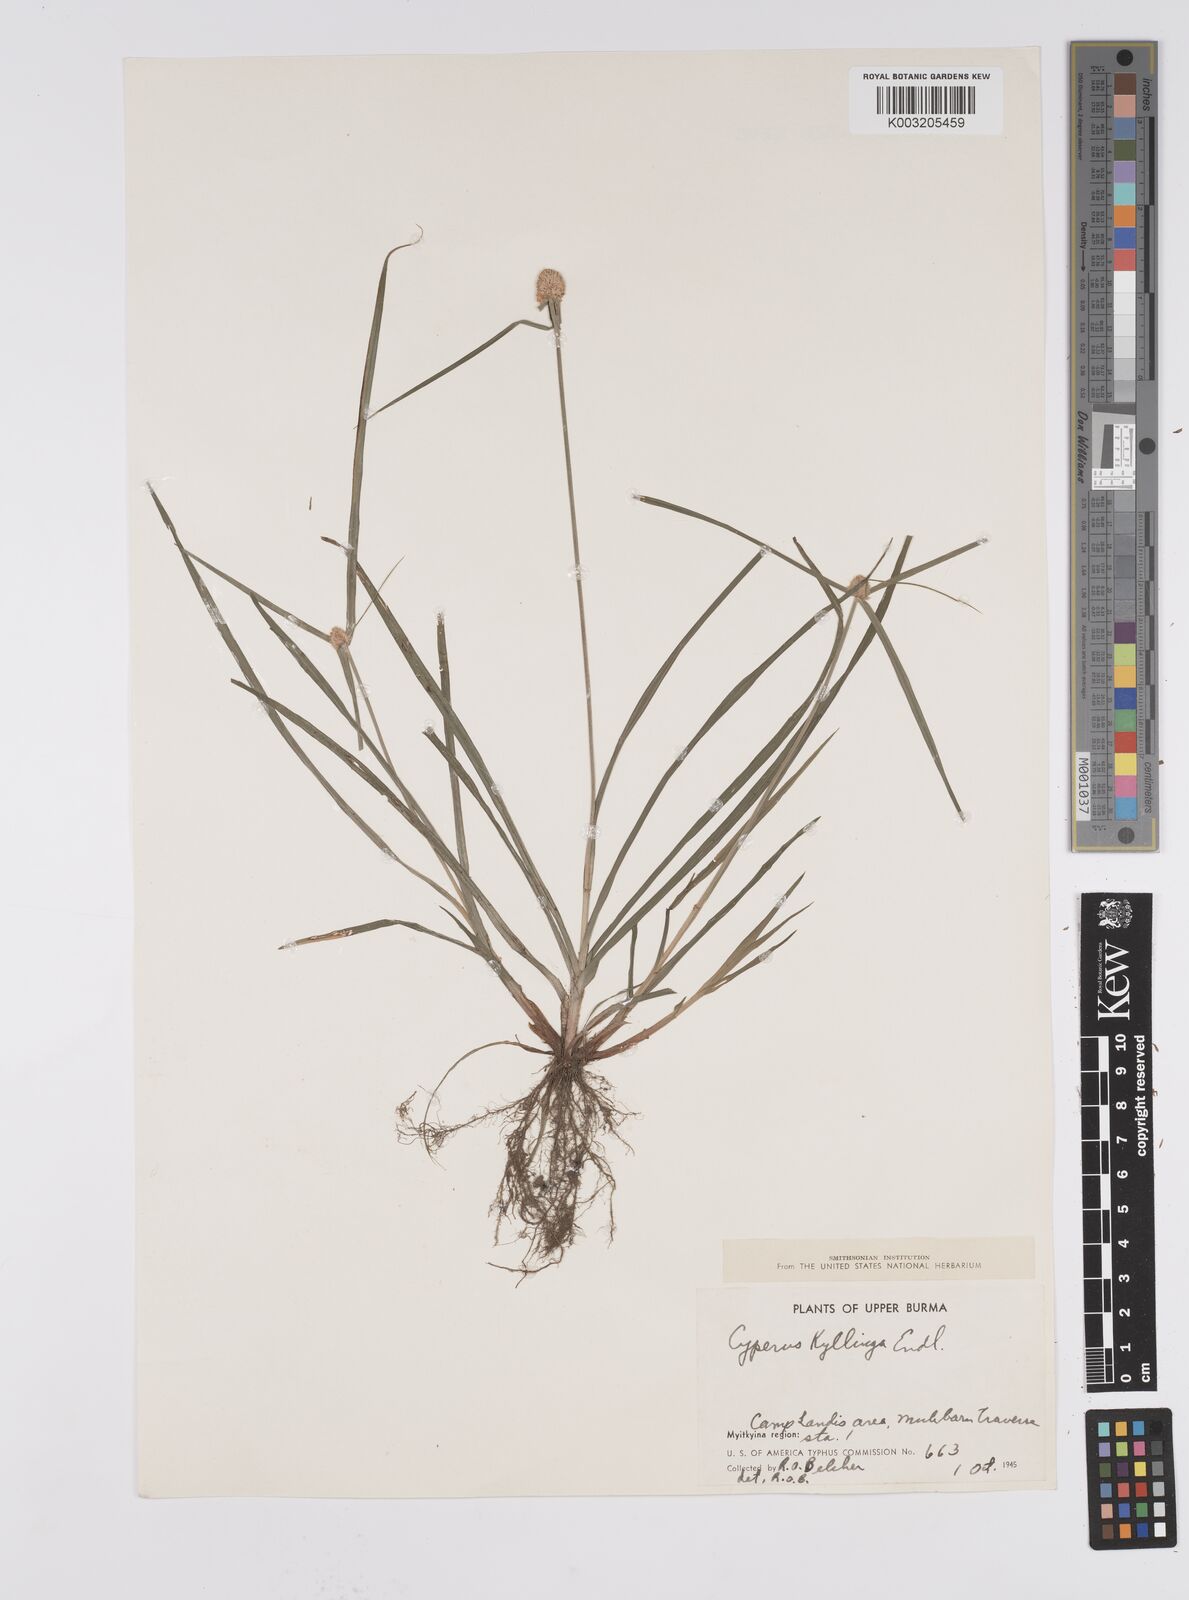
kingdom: Plantae
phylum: Tracheophyta
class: Liliopsida
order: Poales
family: Cyperaceae
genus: Cyperus
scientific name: Cyperus nemoralis
